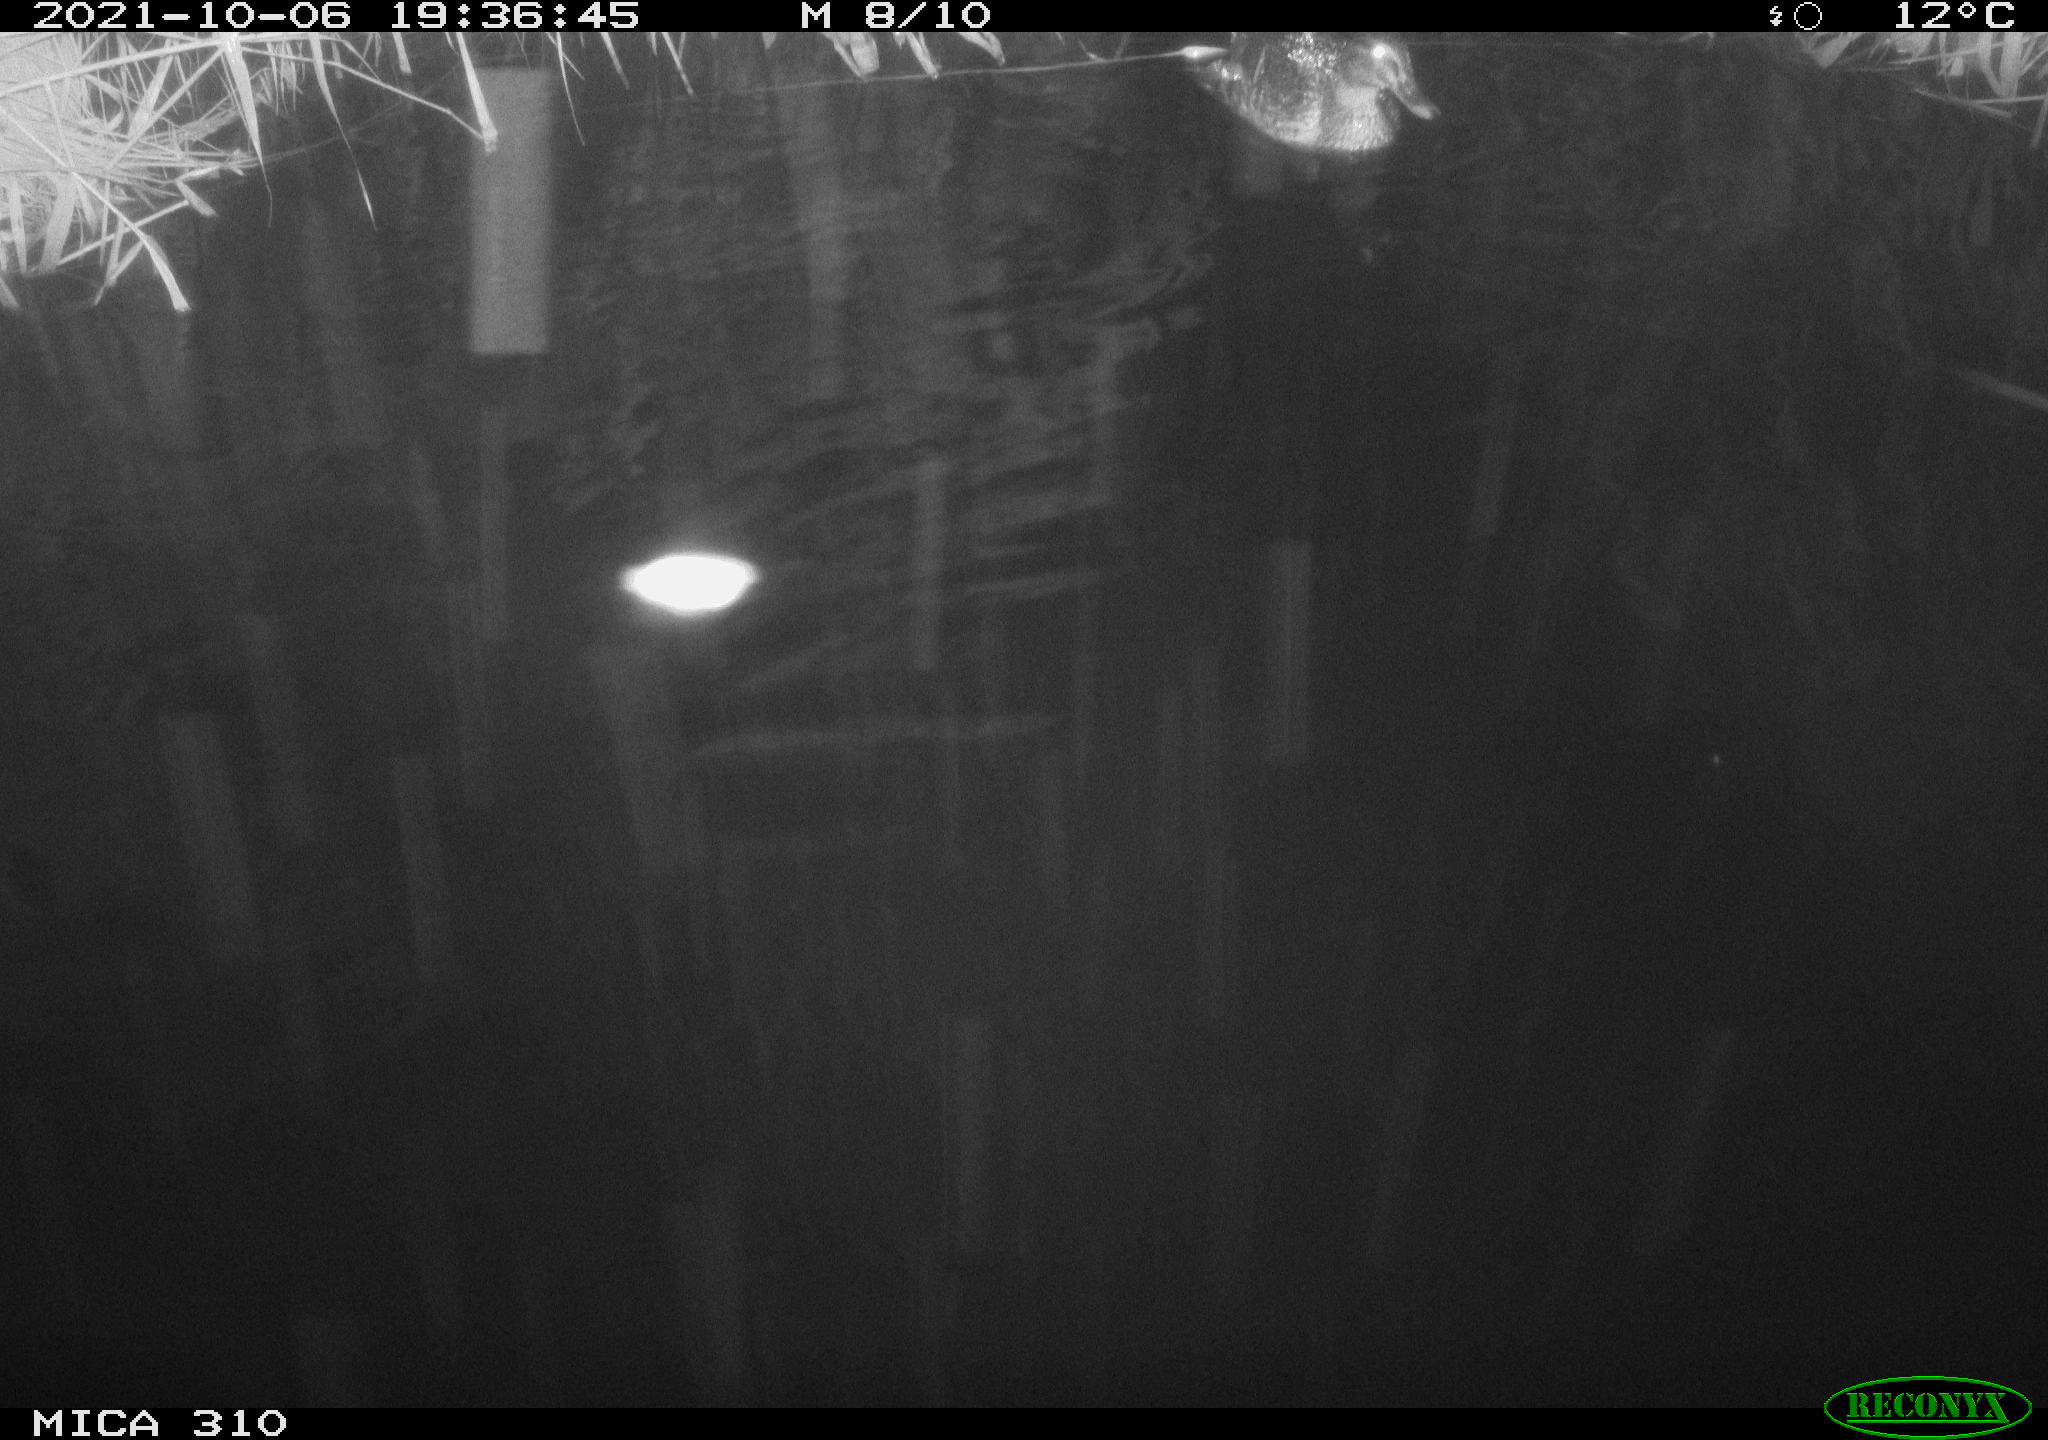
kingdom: Animalia
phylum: Chordata
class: Aves
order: Anseriformes
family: Anatidae
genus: Anas
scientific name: Anas platyrhynchos
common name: Mallard
